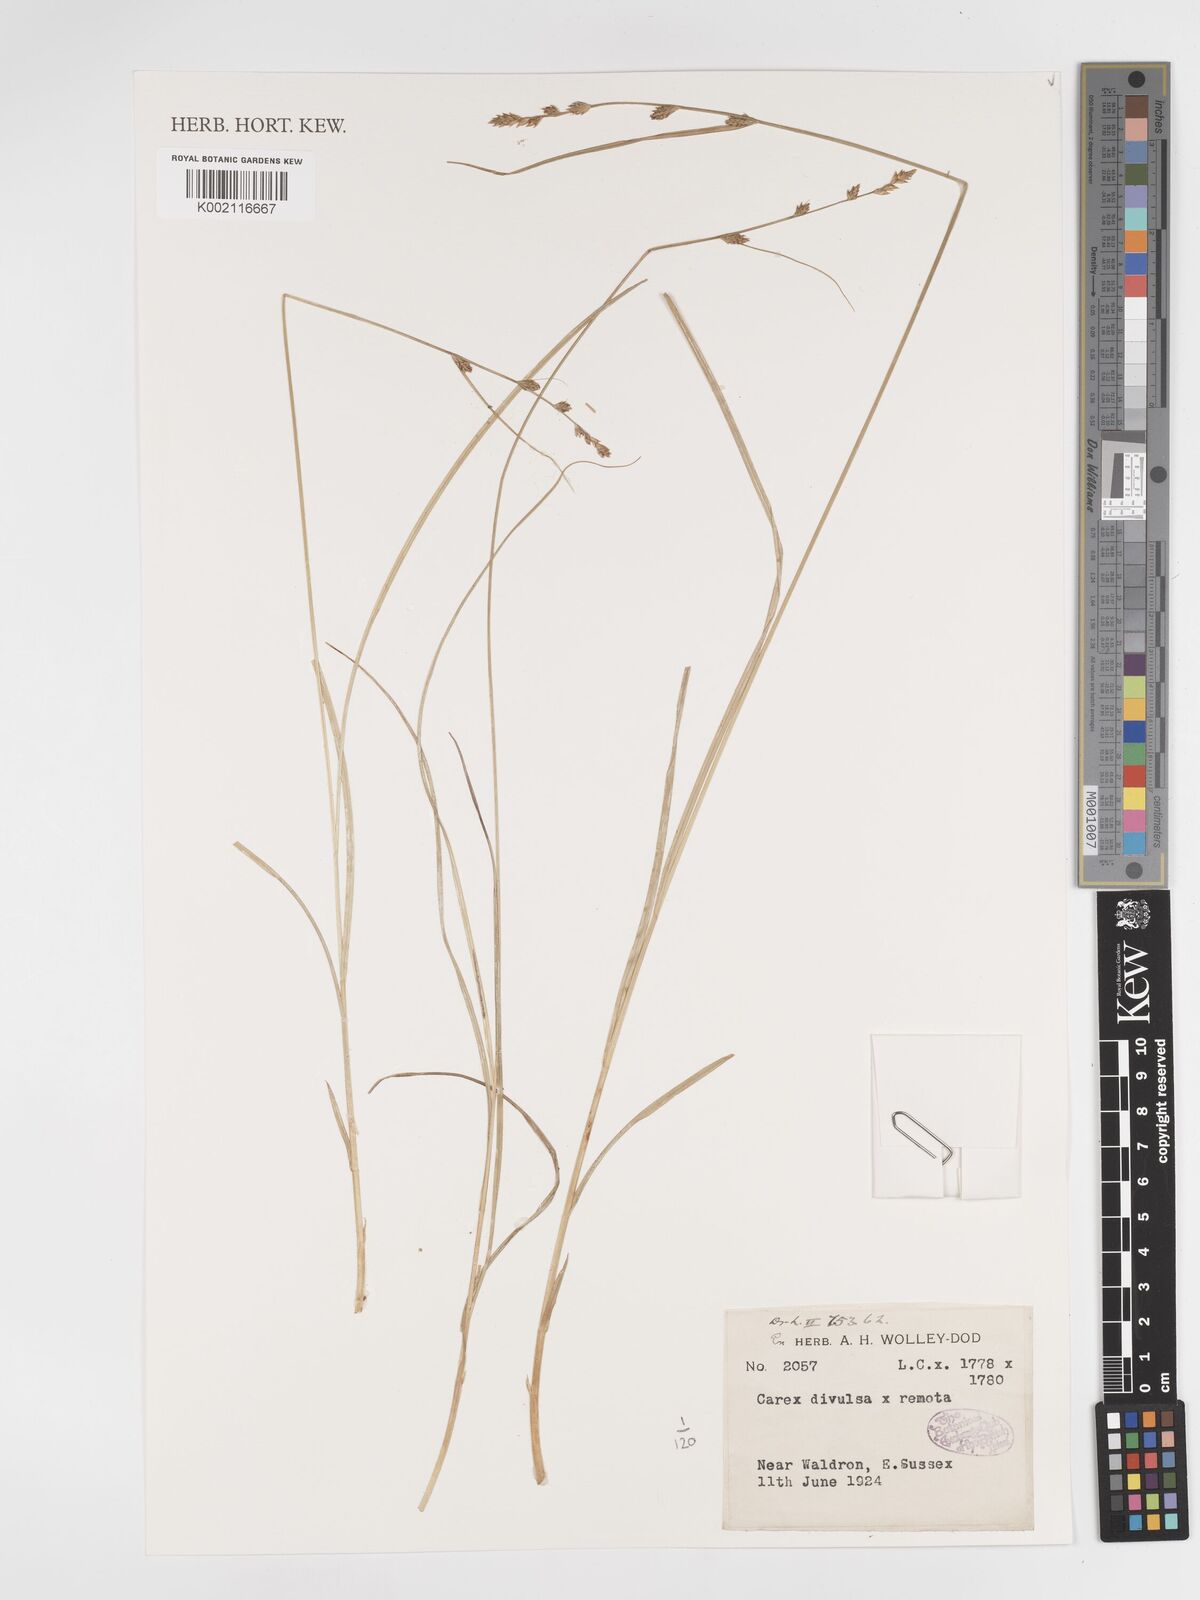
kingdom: Plantae
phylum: Tracheophyta
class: Liliopsida
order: Poales
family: Cyperaceae
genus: Carex
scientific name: Carex divulsa
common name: Grassland sedge
